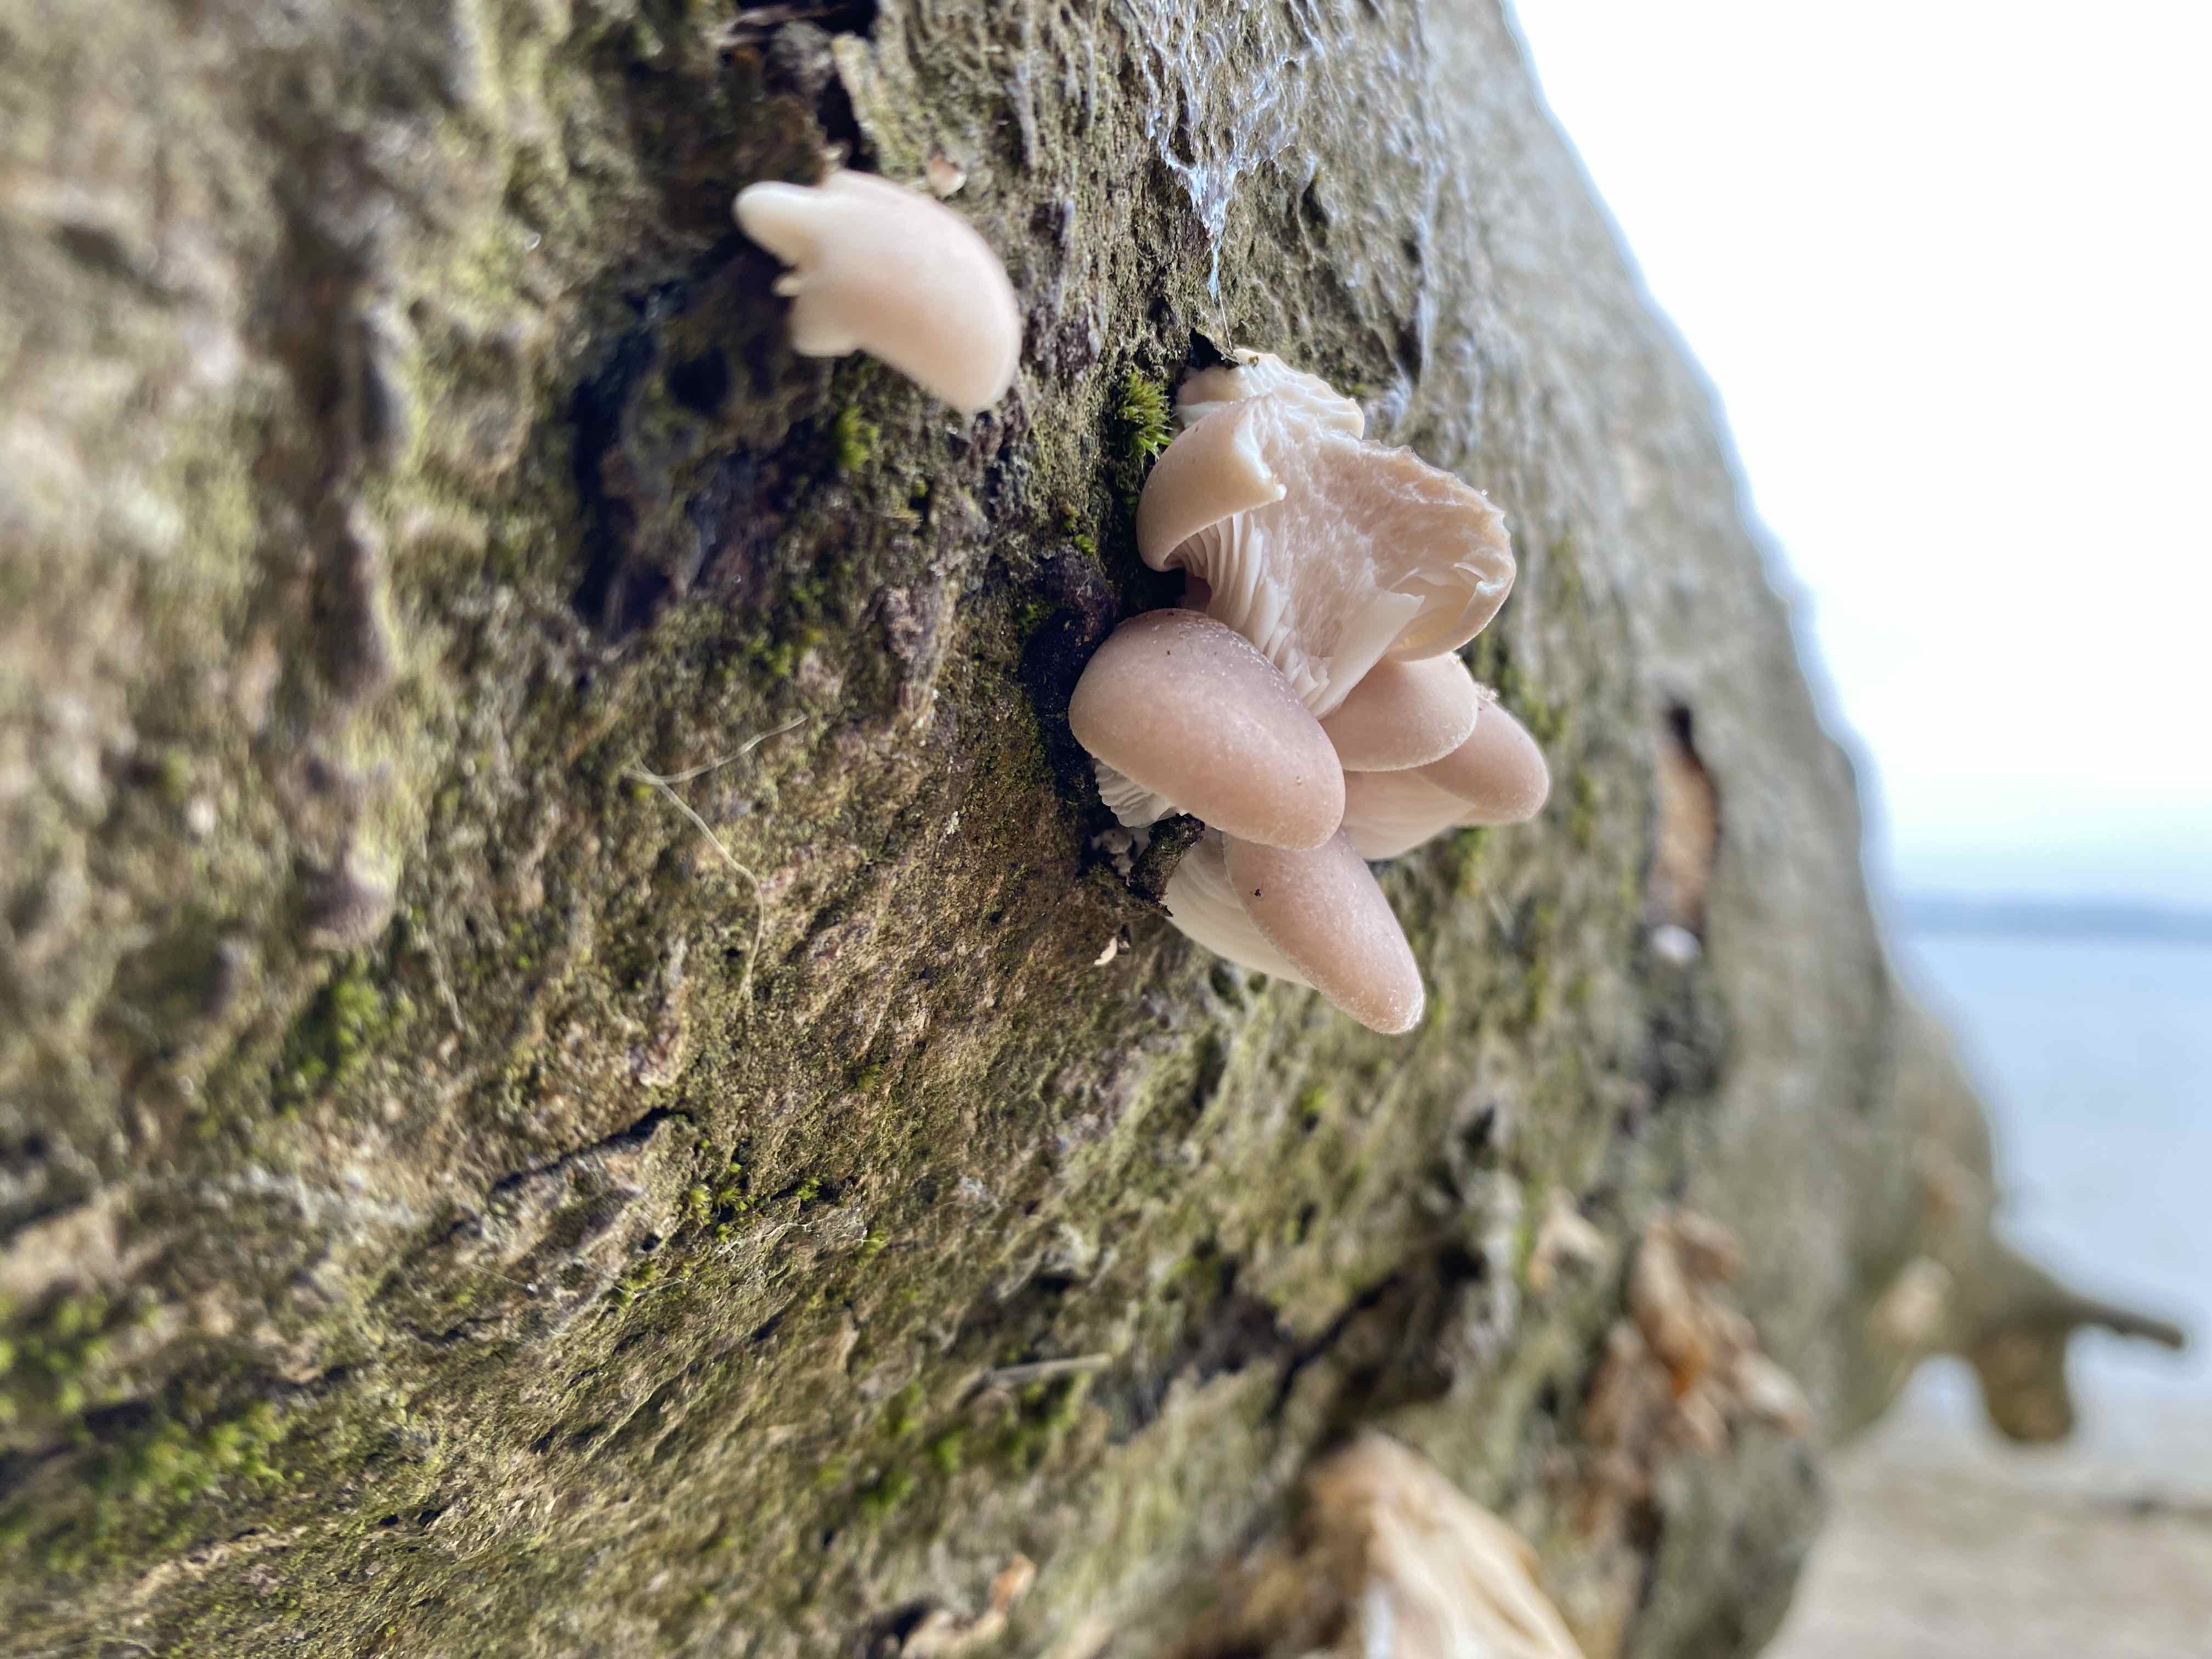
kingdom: Fungi
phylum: Basidiomycota
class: Agaricomycetes
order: Agaricales
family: Pleurotaceae
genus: Pleurotus
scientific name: Pleurotus ostreatus
